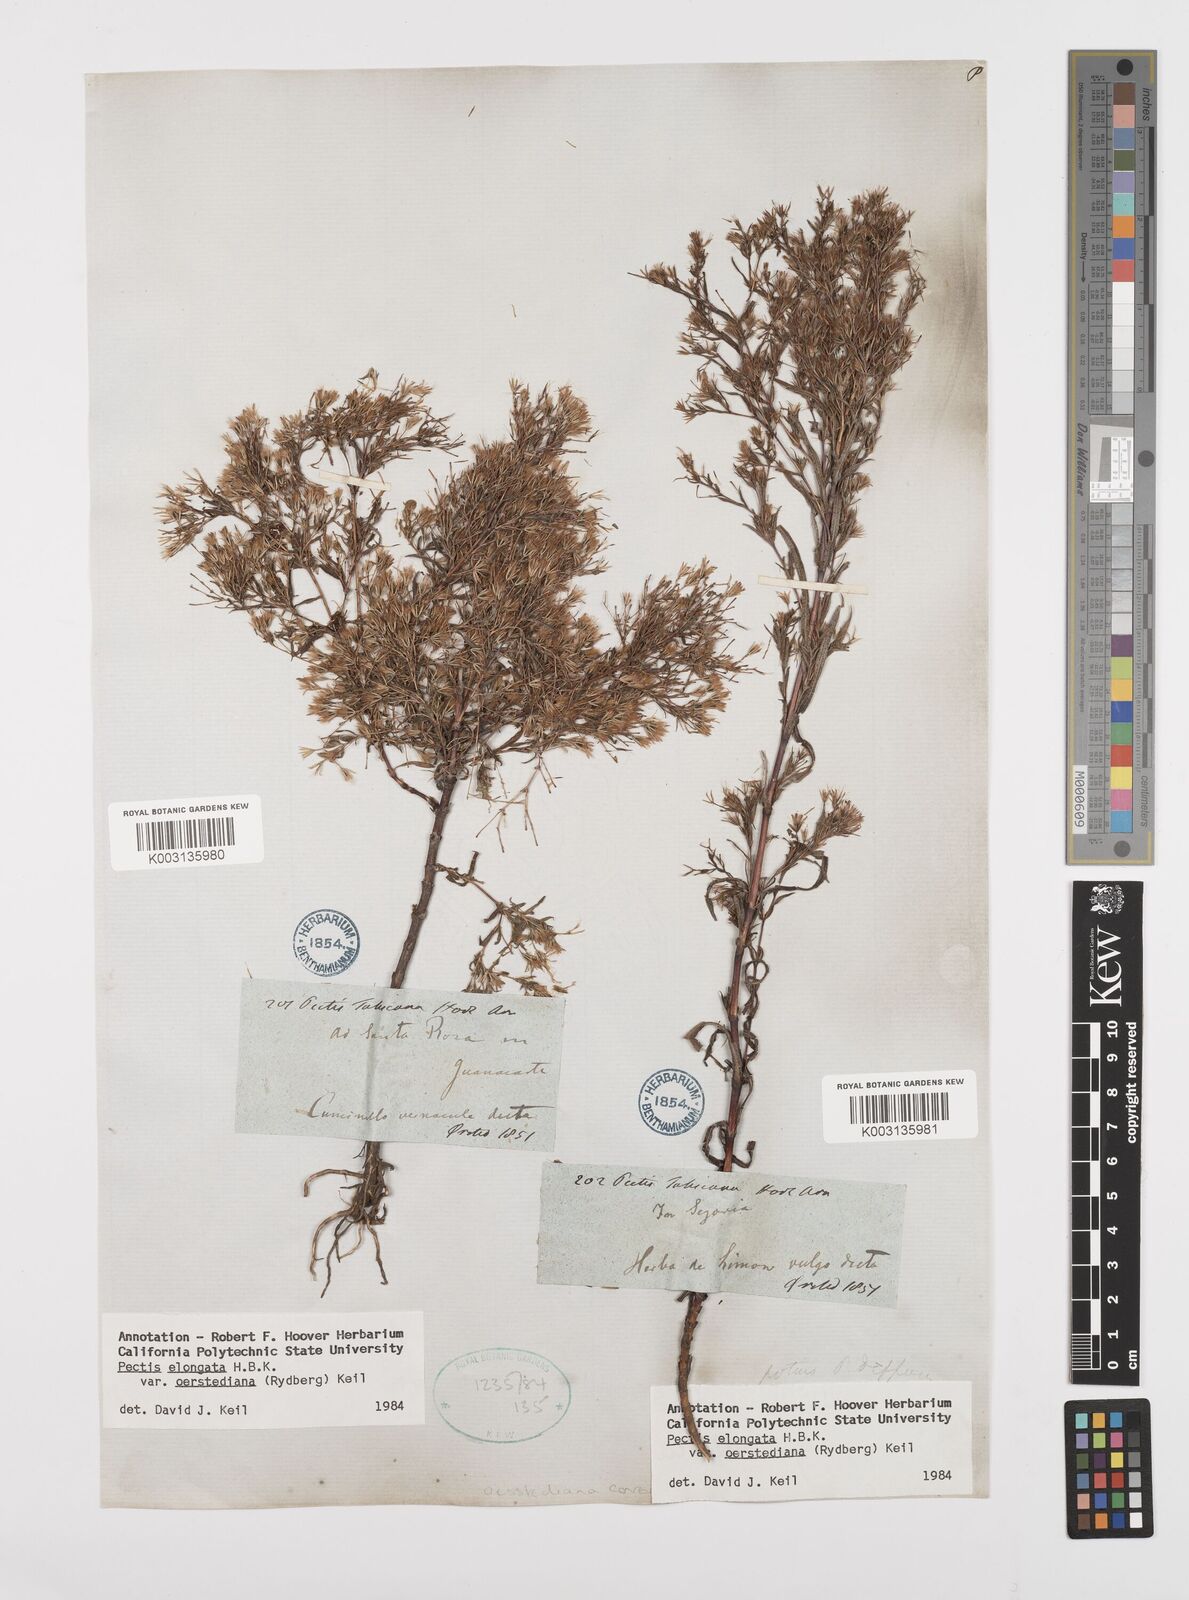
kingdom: Plantae
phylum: Tracheophyta
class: Magnoliopsida
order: Asterales
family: Asteraceae
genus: Pectis
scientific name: Pectis elongata
